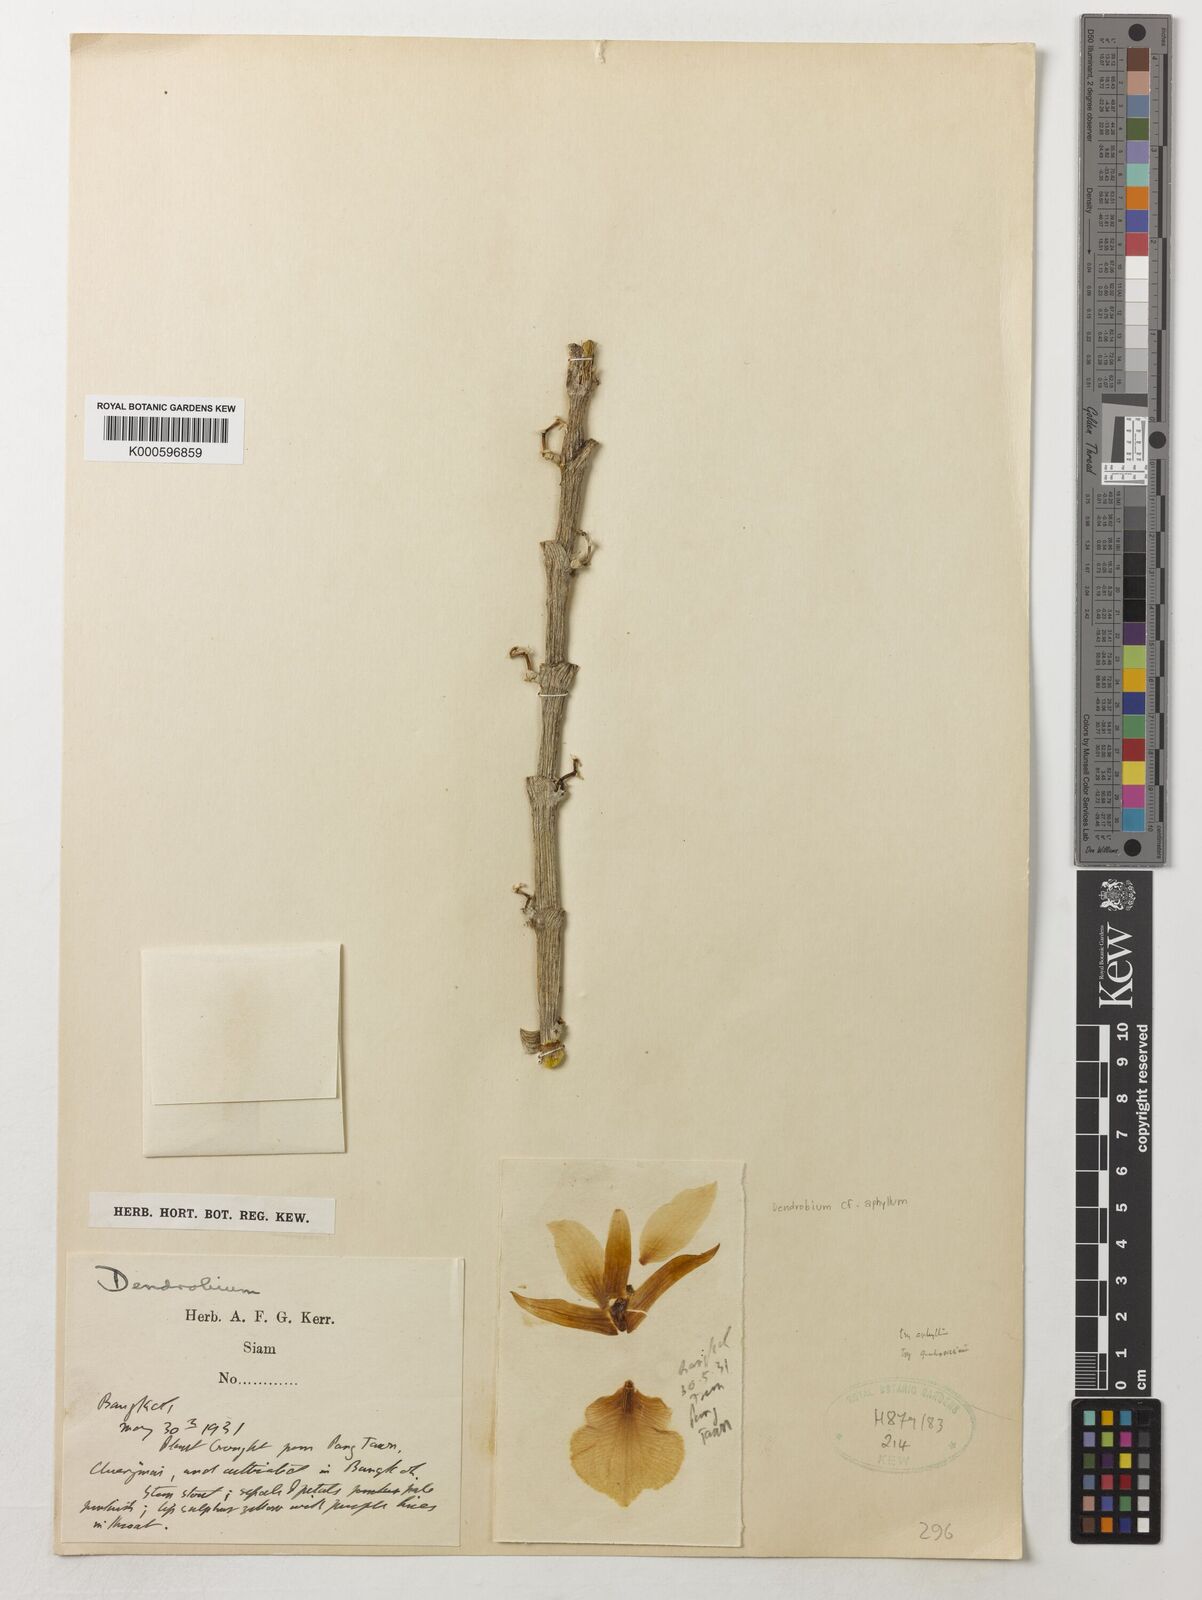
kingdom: Plantae
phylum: Tracheophyta
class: Liliopsida
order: Asparagales
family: Orchidaceae
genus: Dendrobium
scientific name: Dendrobium
